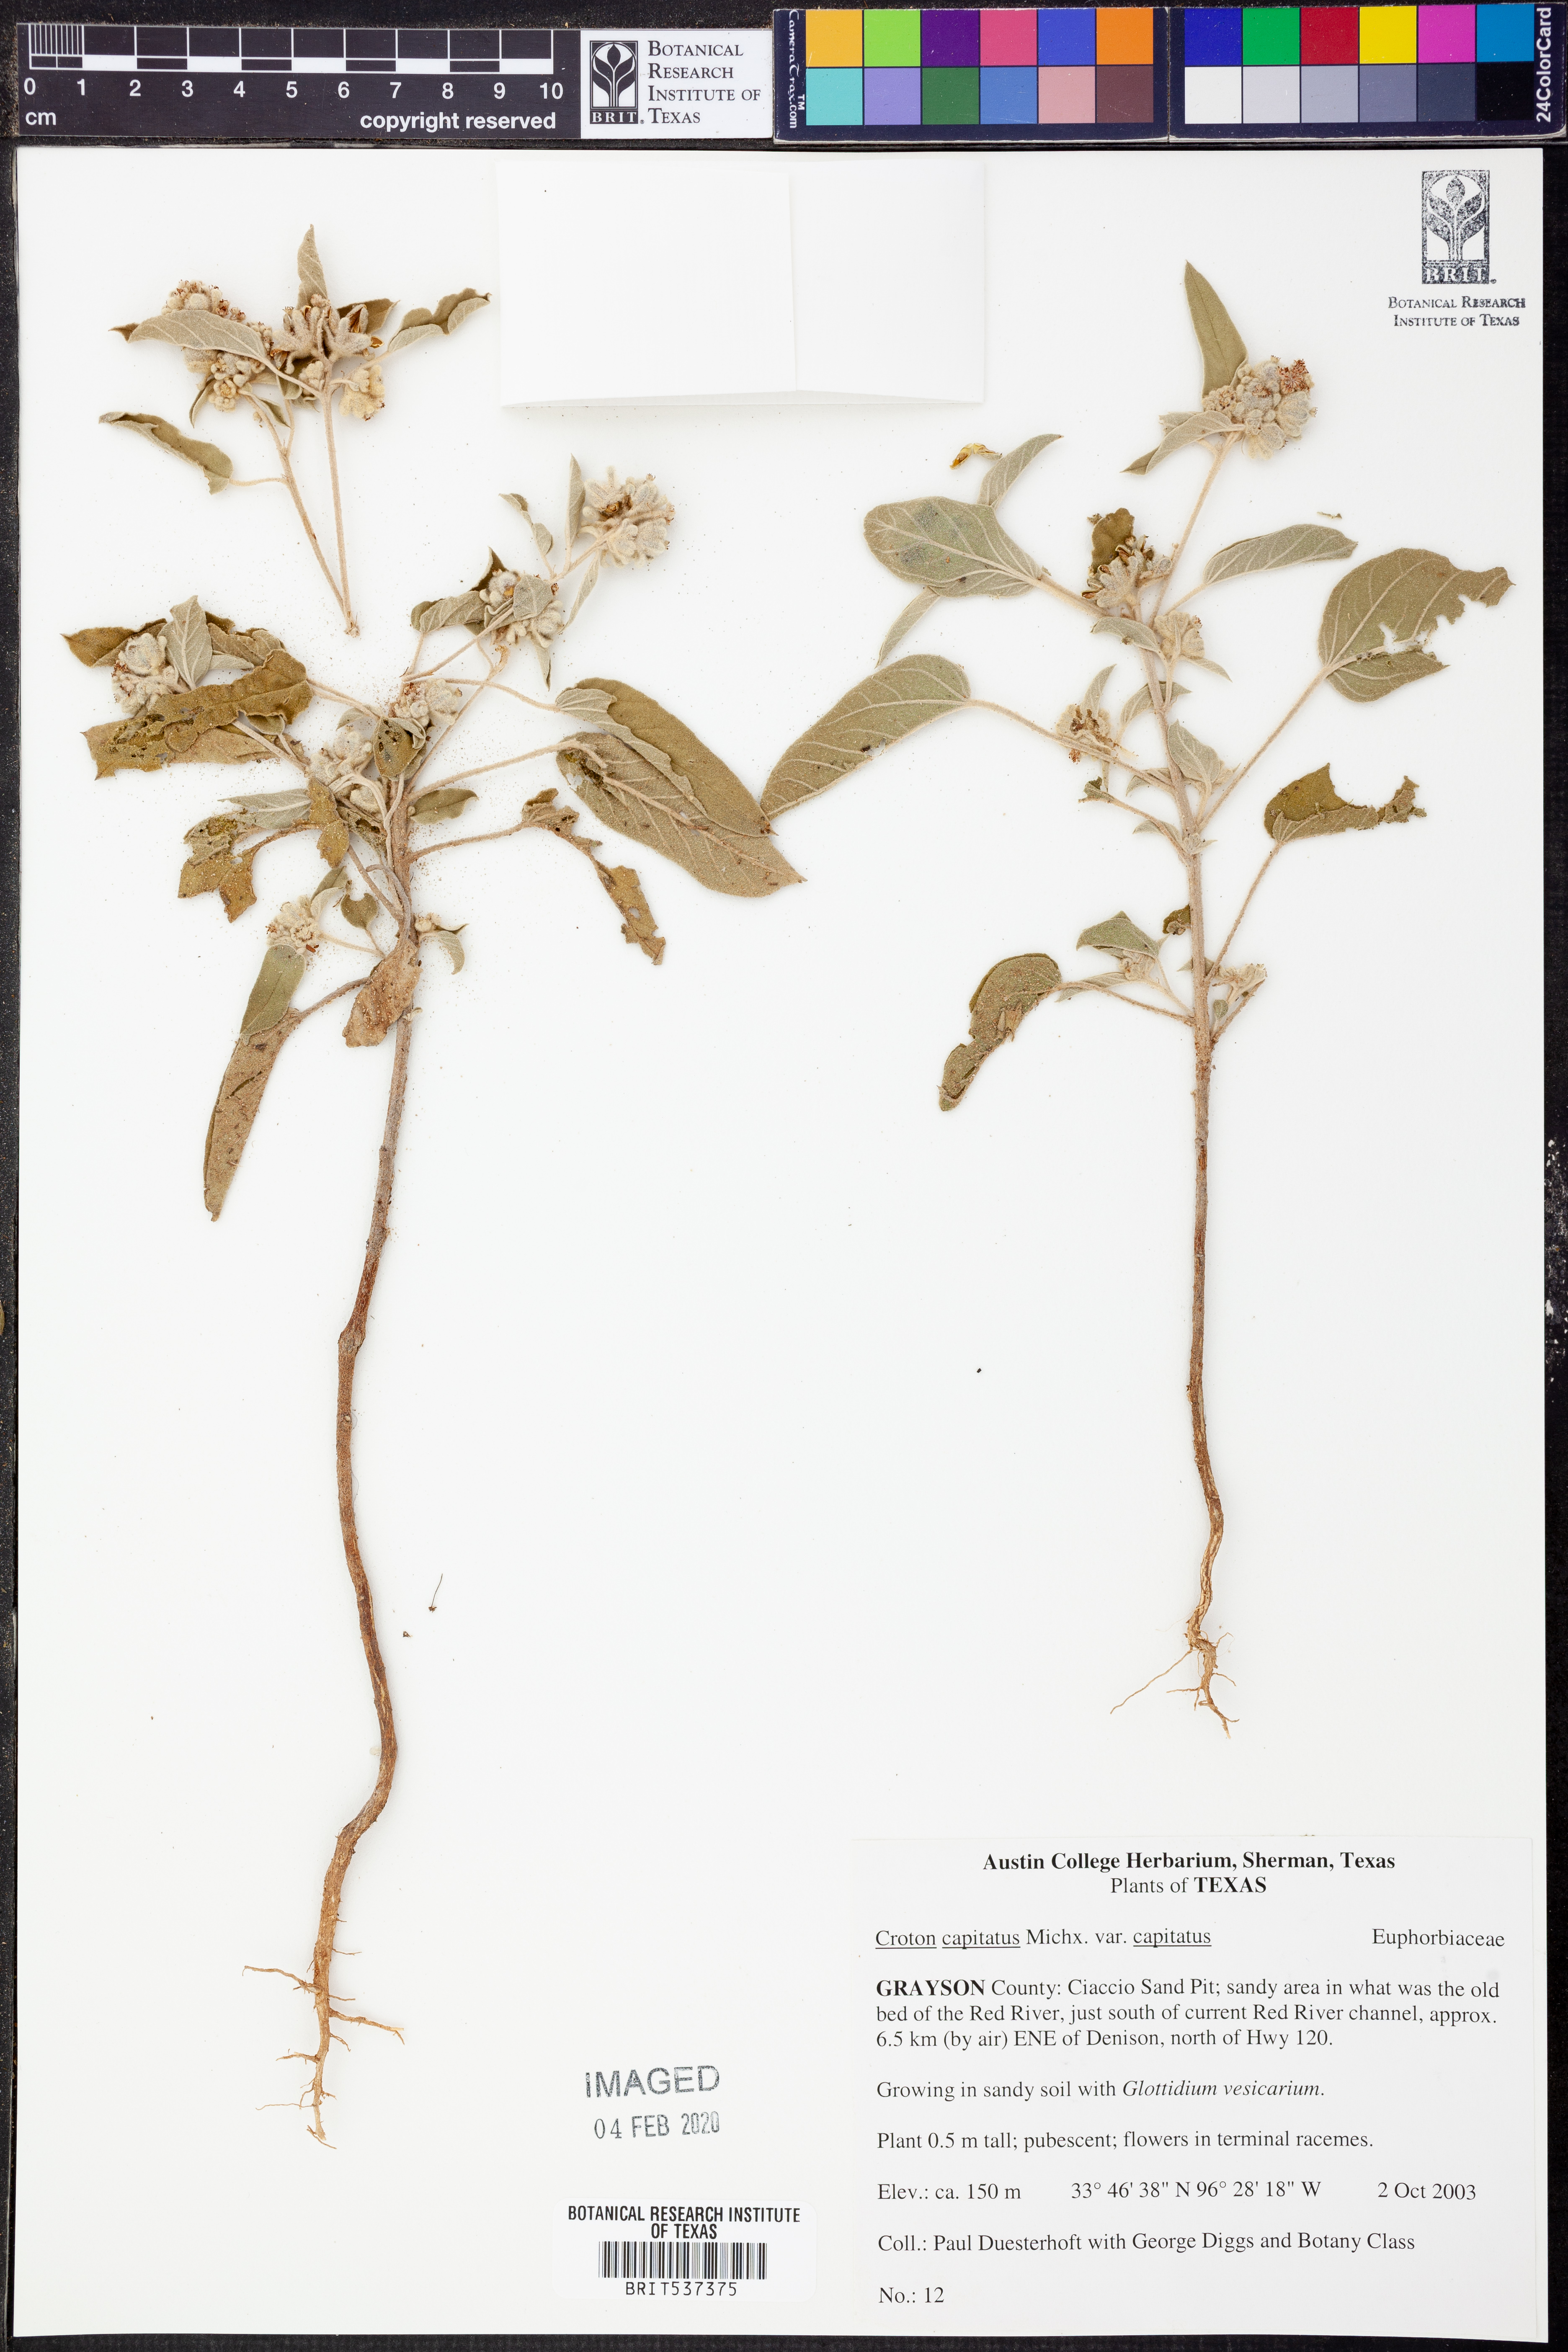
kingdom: Plantae
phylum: Tracheophyta
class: Magnoliopsida
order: Malpighiales
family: Euphorbiaceae
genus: Croton
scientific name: Croton capitatus
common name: Woolly croton
